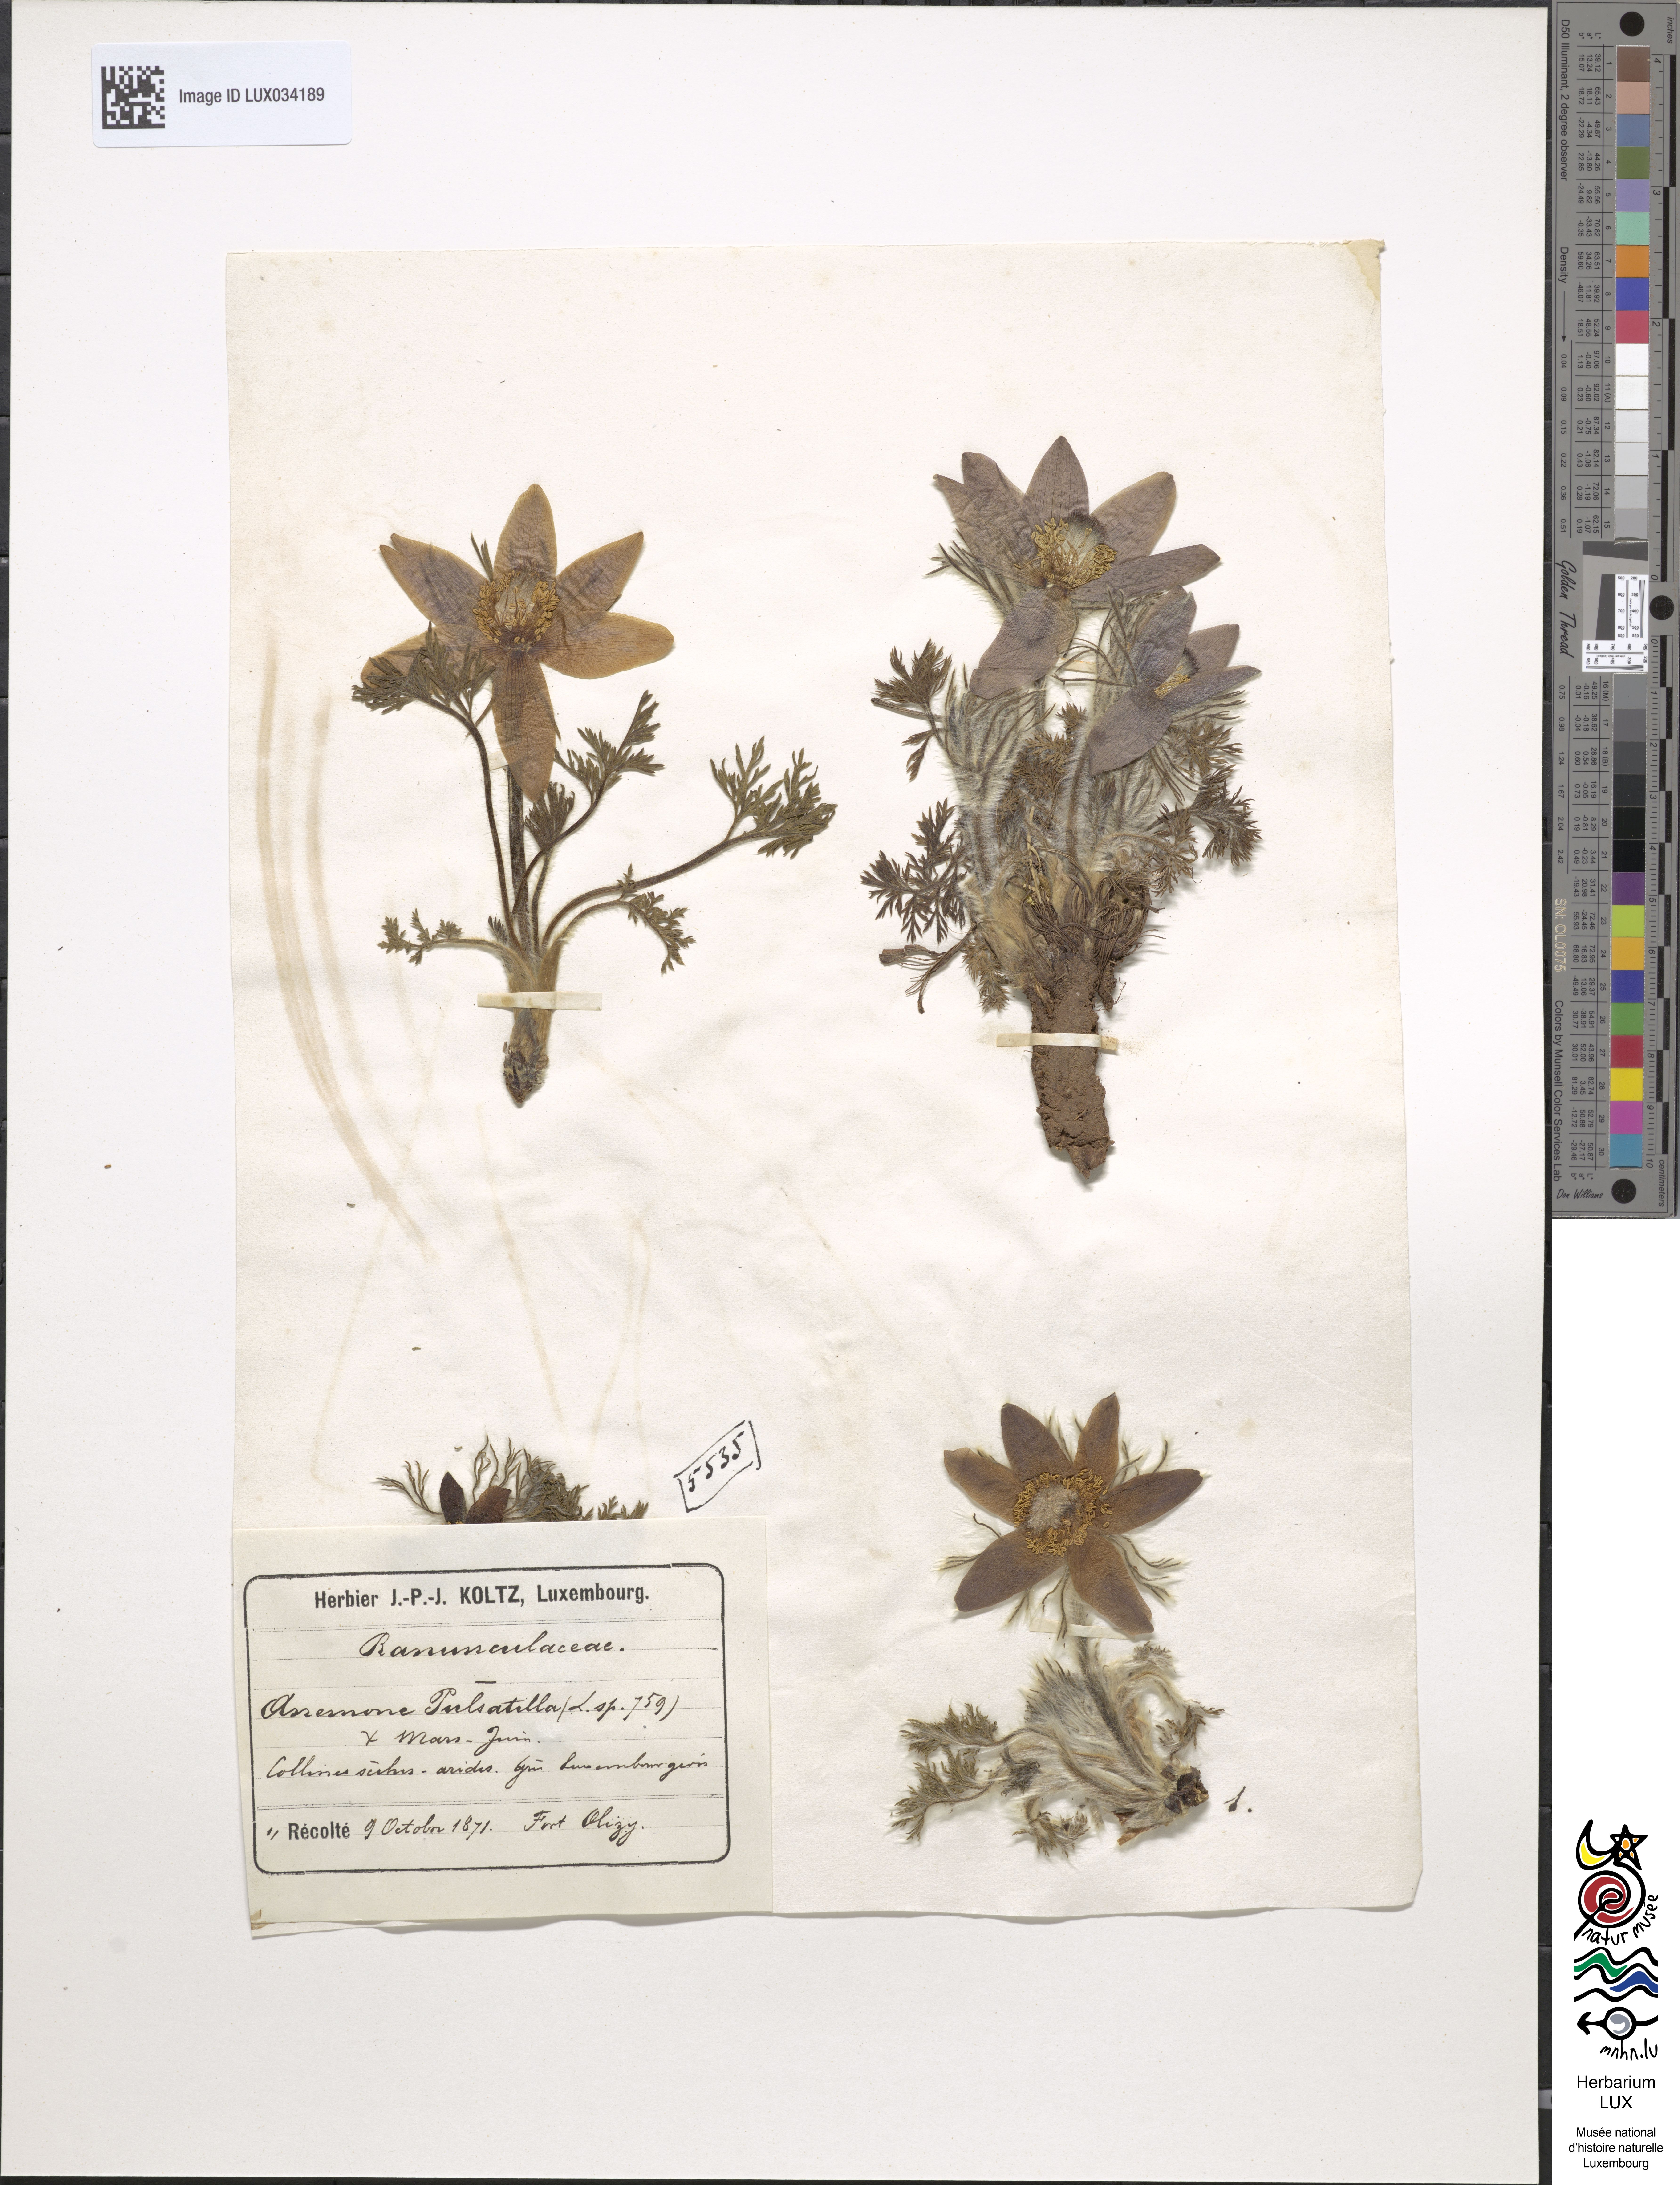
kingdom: Plantae
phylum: Tracheophyta
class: Magnoliopsida
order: Ranunculales
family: Ranunculaceae
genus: Pulsatilla
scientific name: Pulsatilla vulgaris
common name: Pasqueflower
